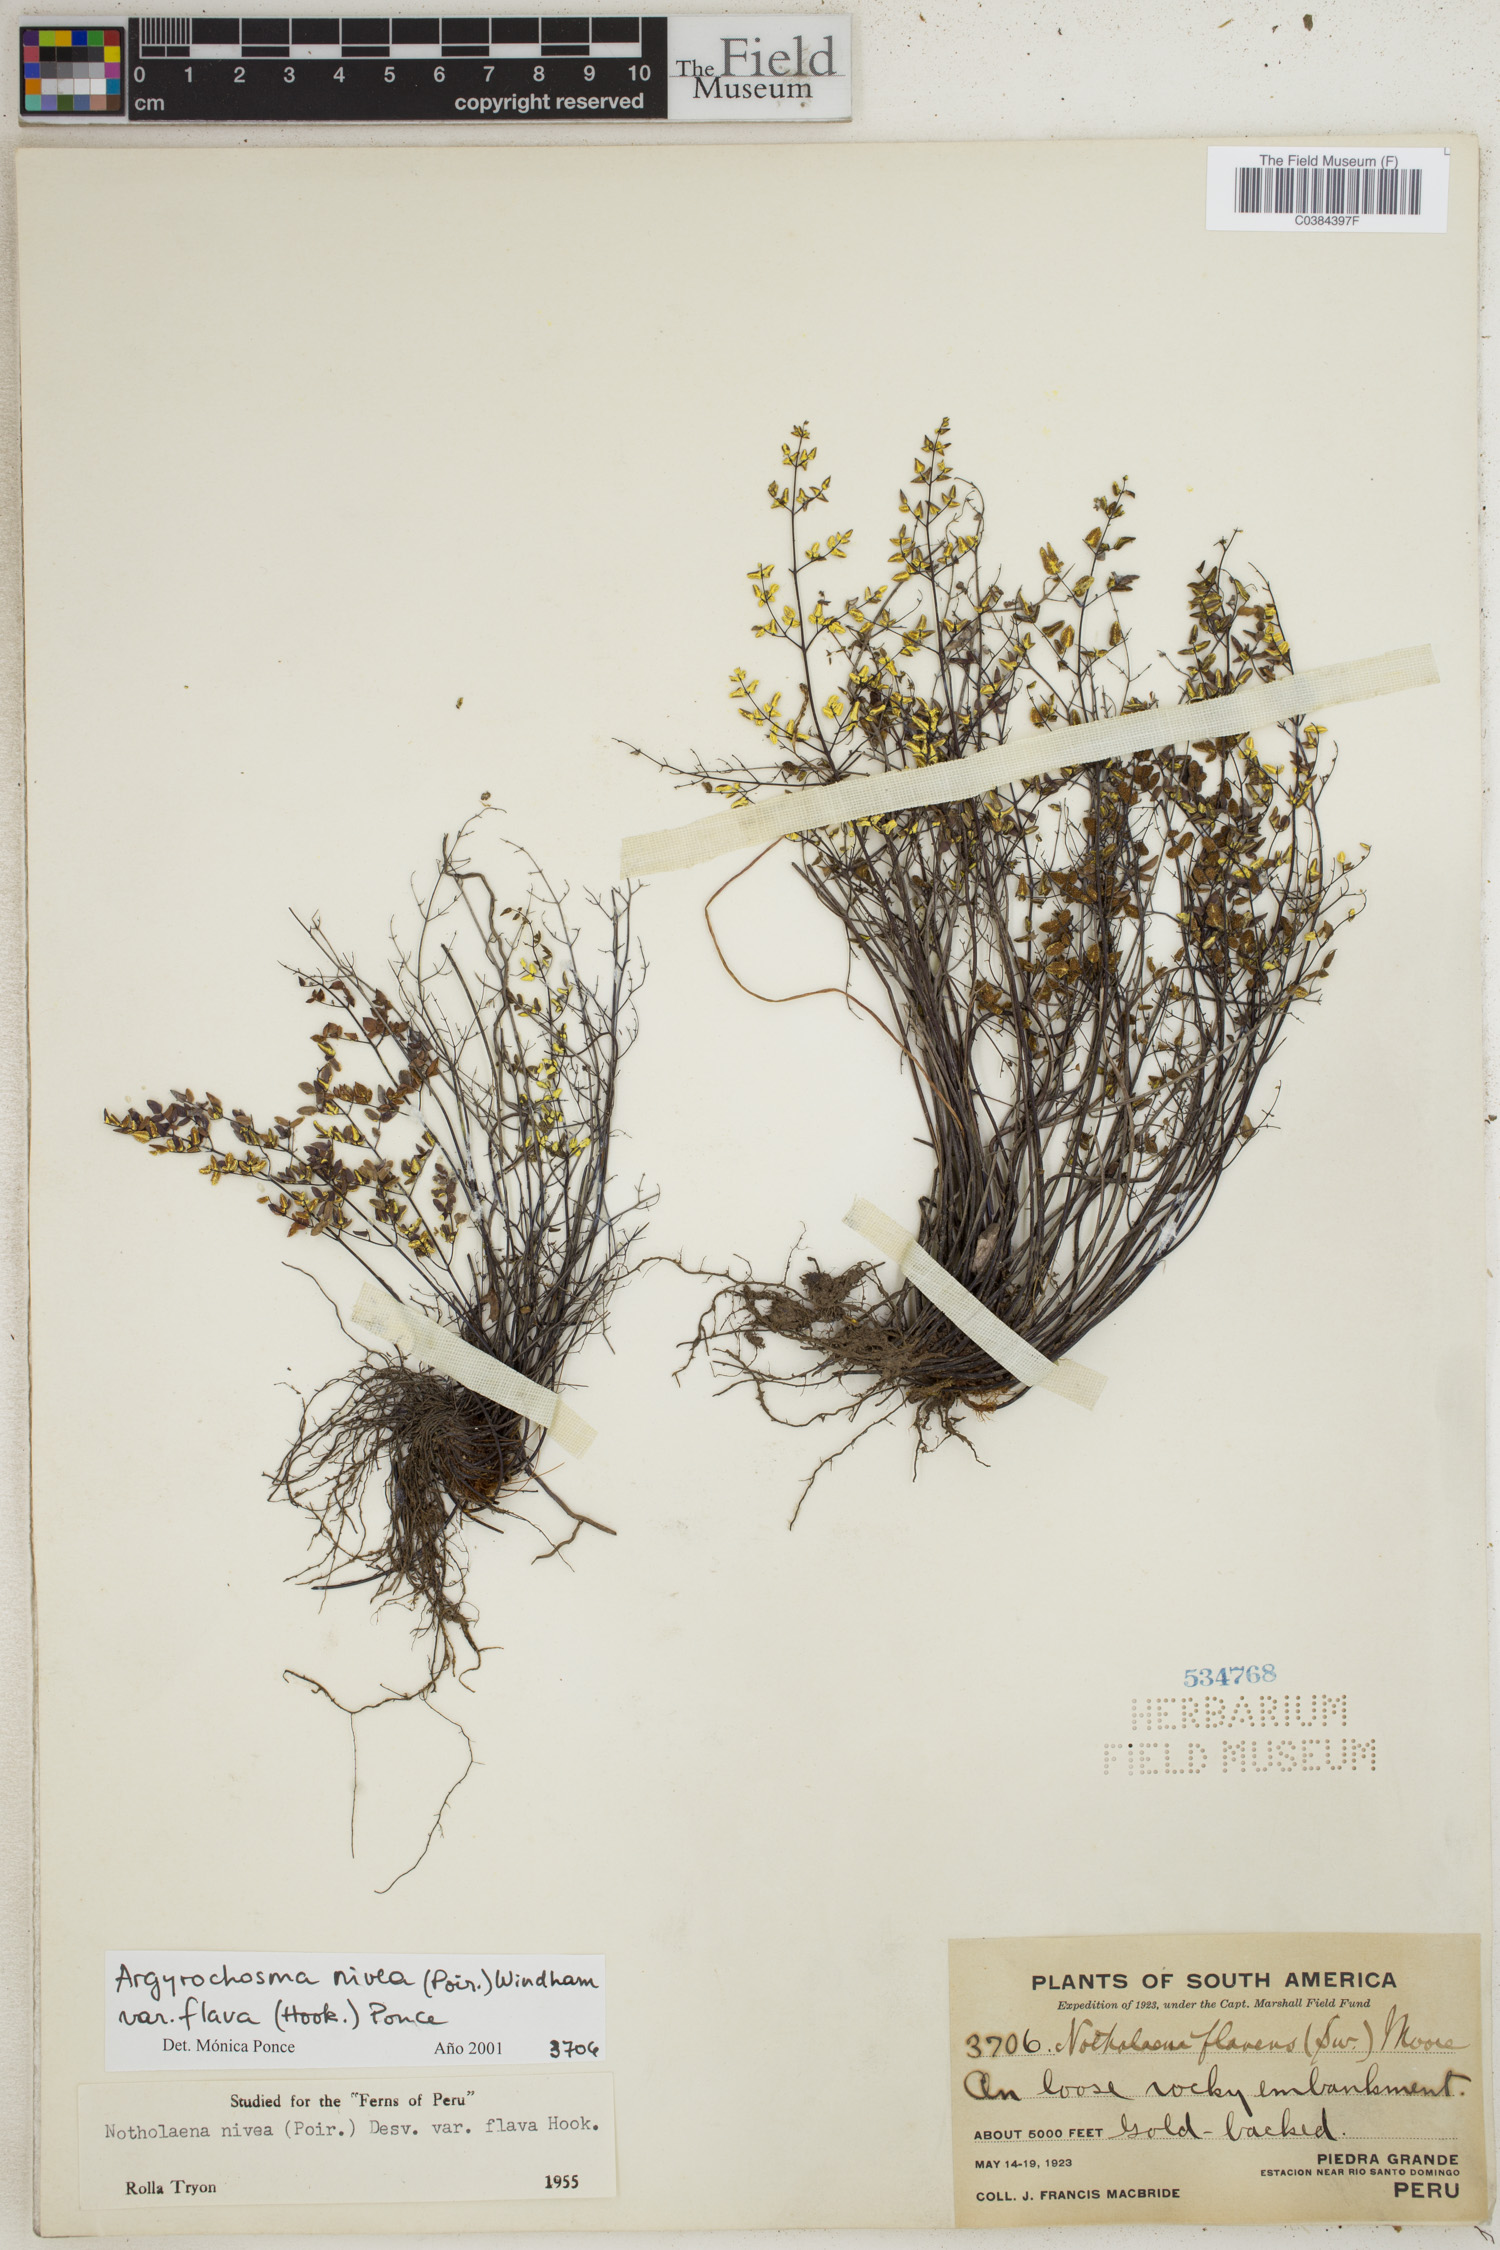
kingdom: Plantae
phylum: Tracheophyta
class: Polypodiopsida
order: Polypodiales
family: Pteridaceae
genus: Argyrochosma
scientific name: Argyrochosma nivea
